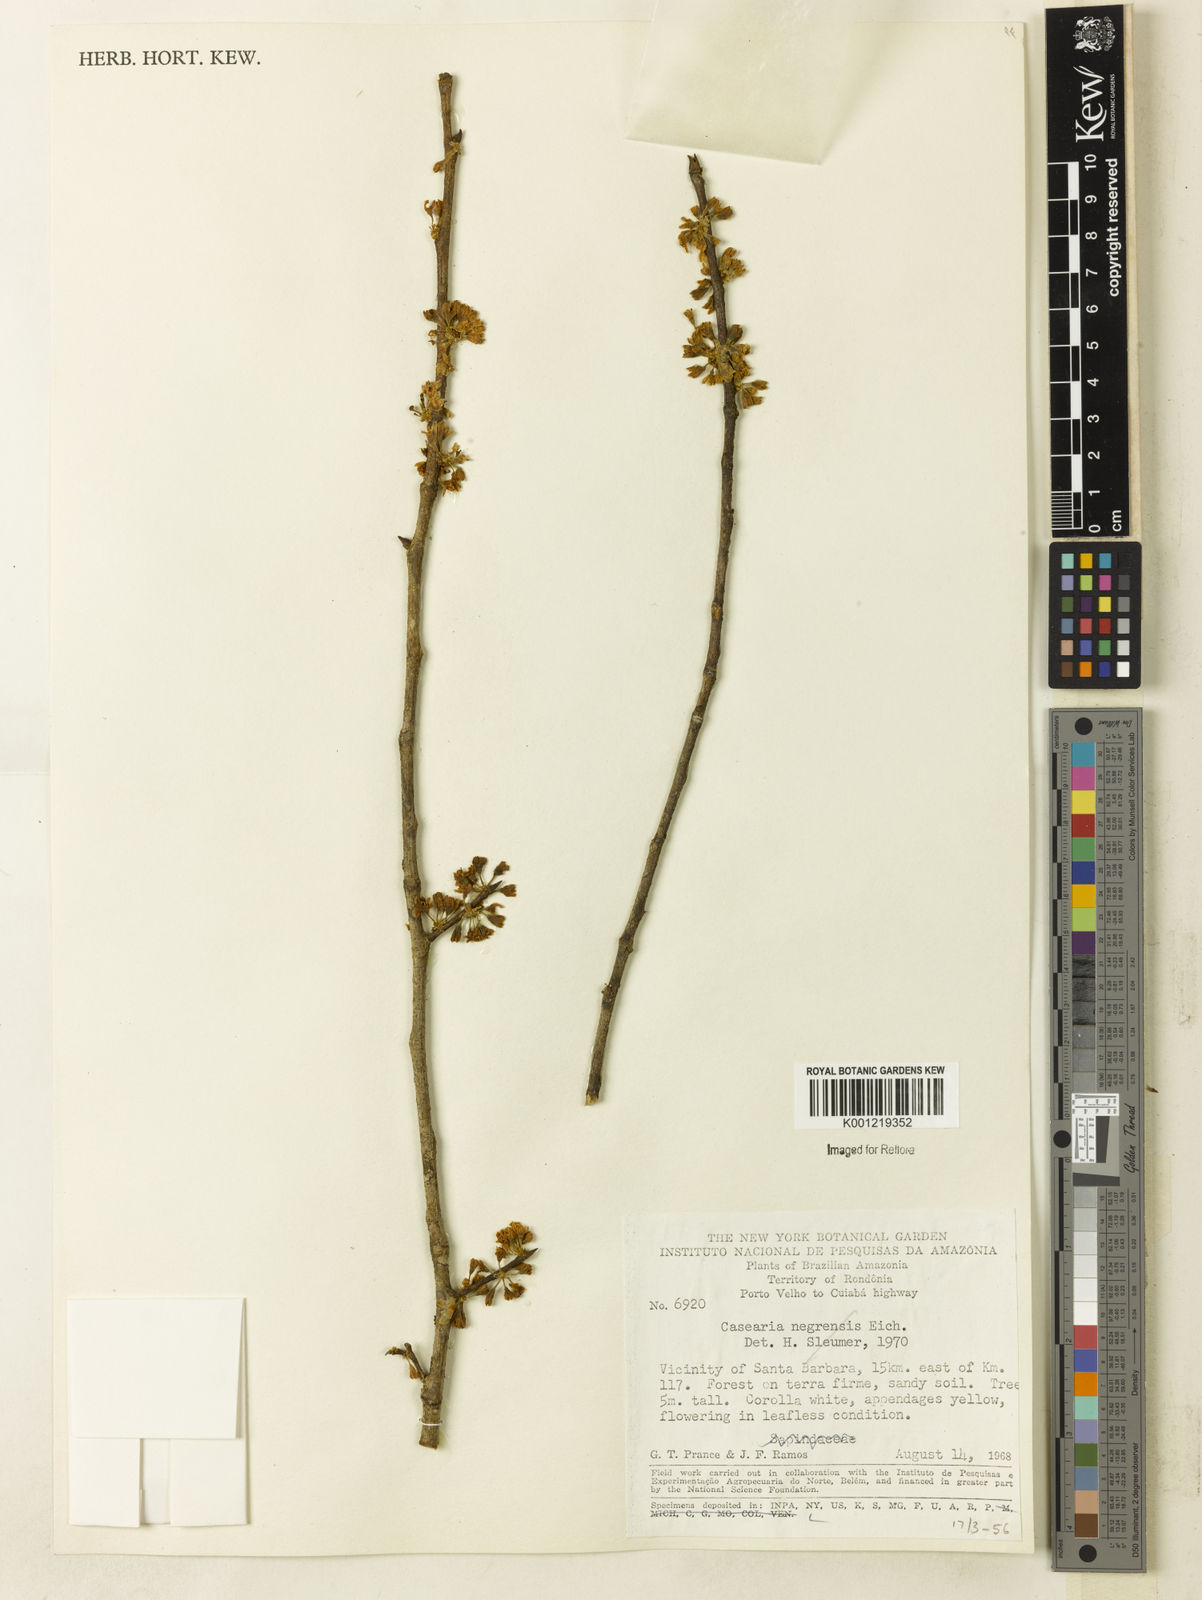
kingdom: Plantae
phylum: Tracheophyta
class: Magnoliopsida
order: Malpighiales
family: Salicaceae
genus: Casearia
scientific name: Casearia
